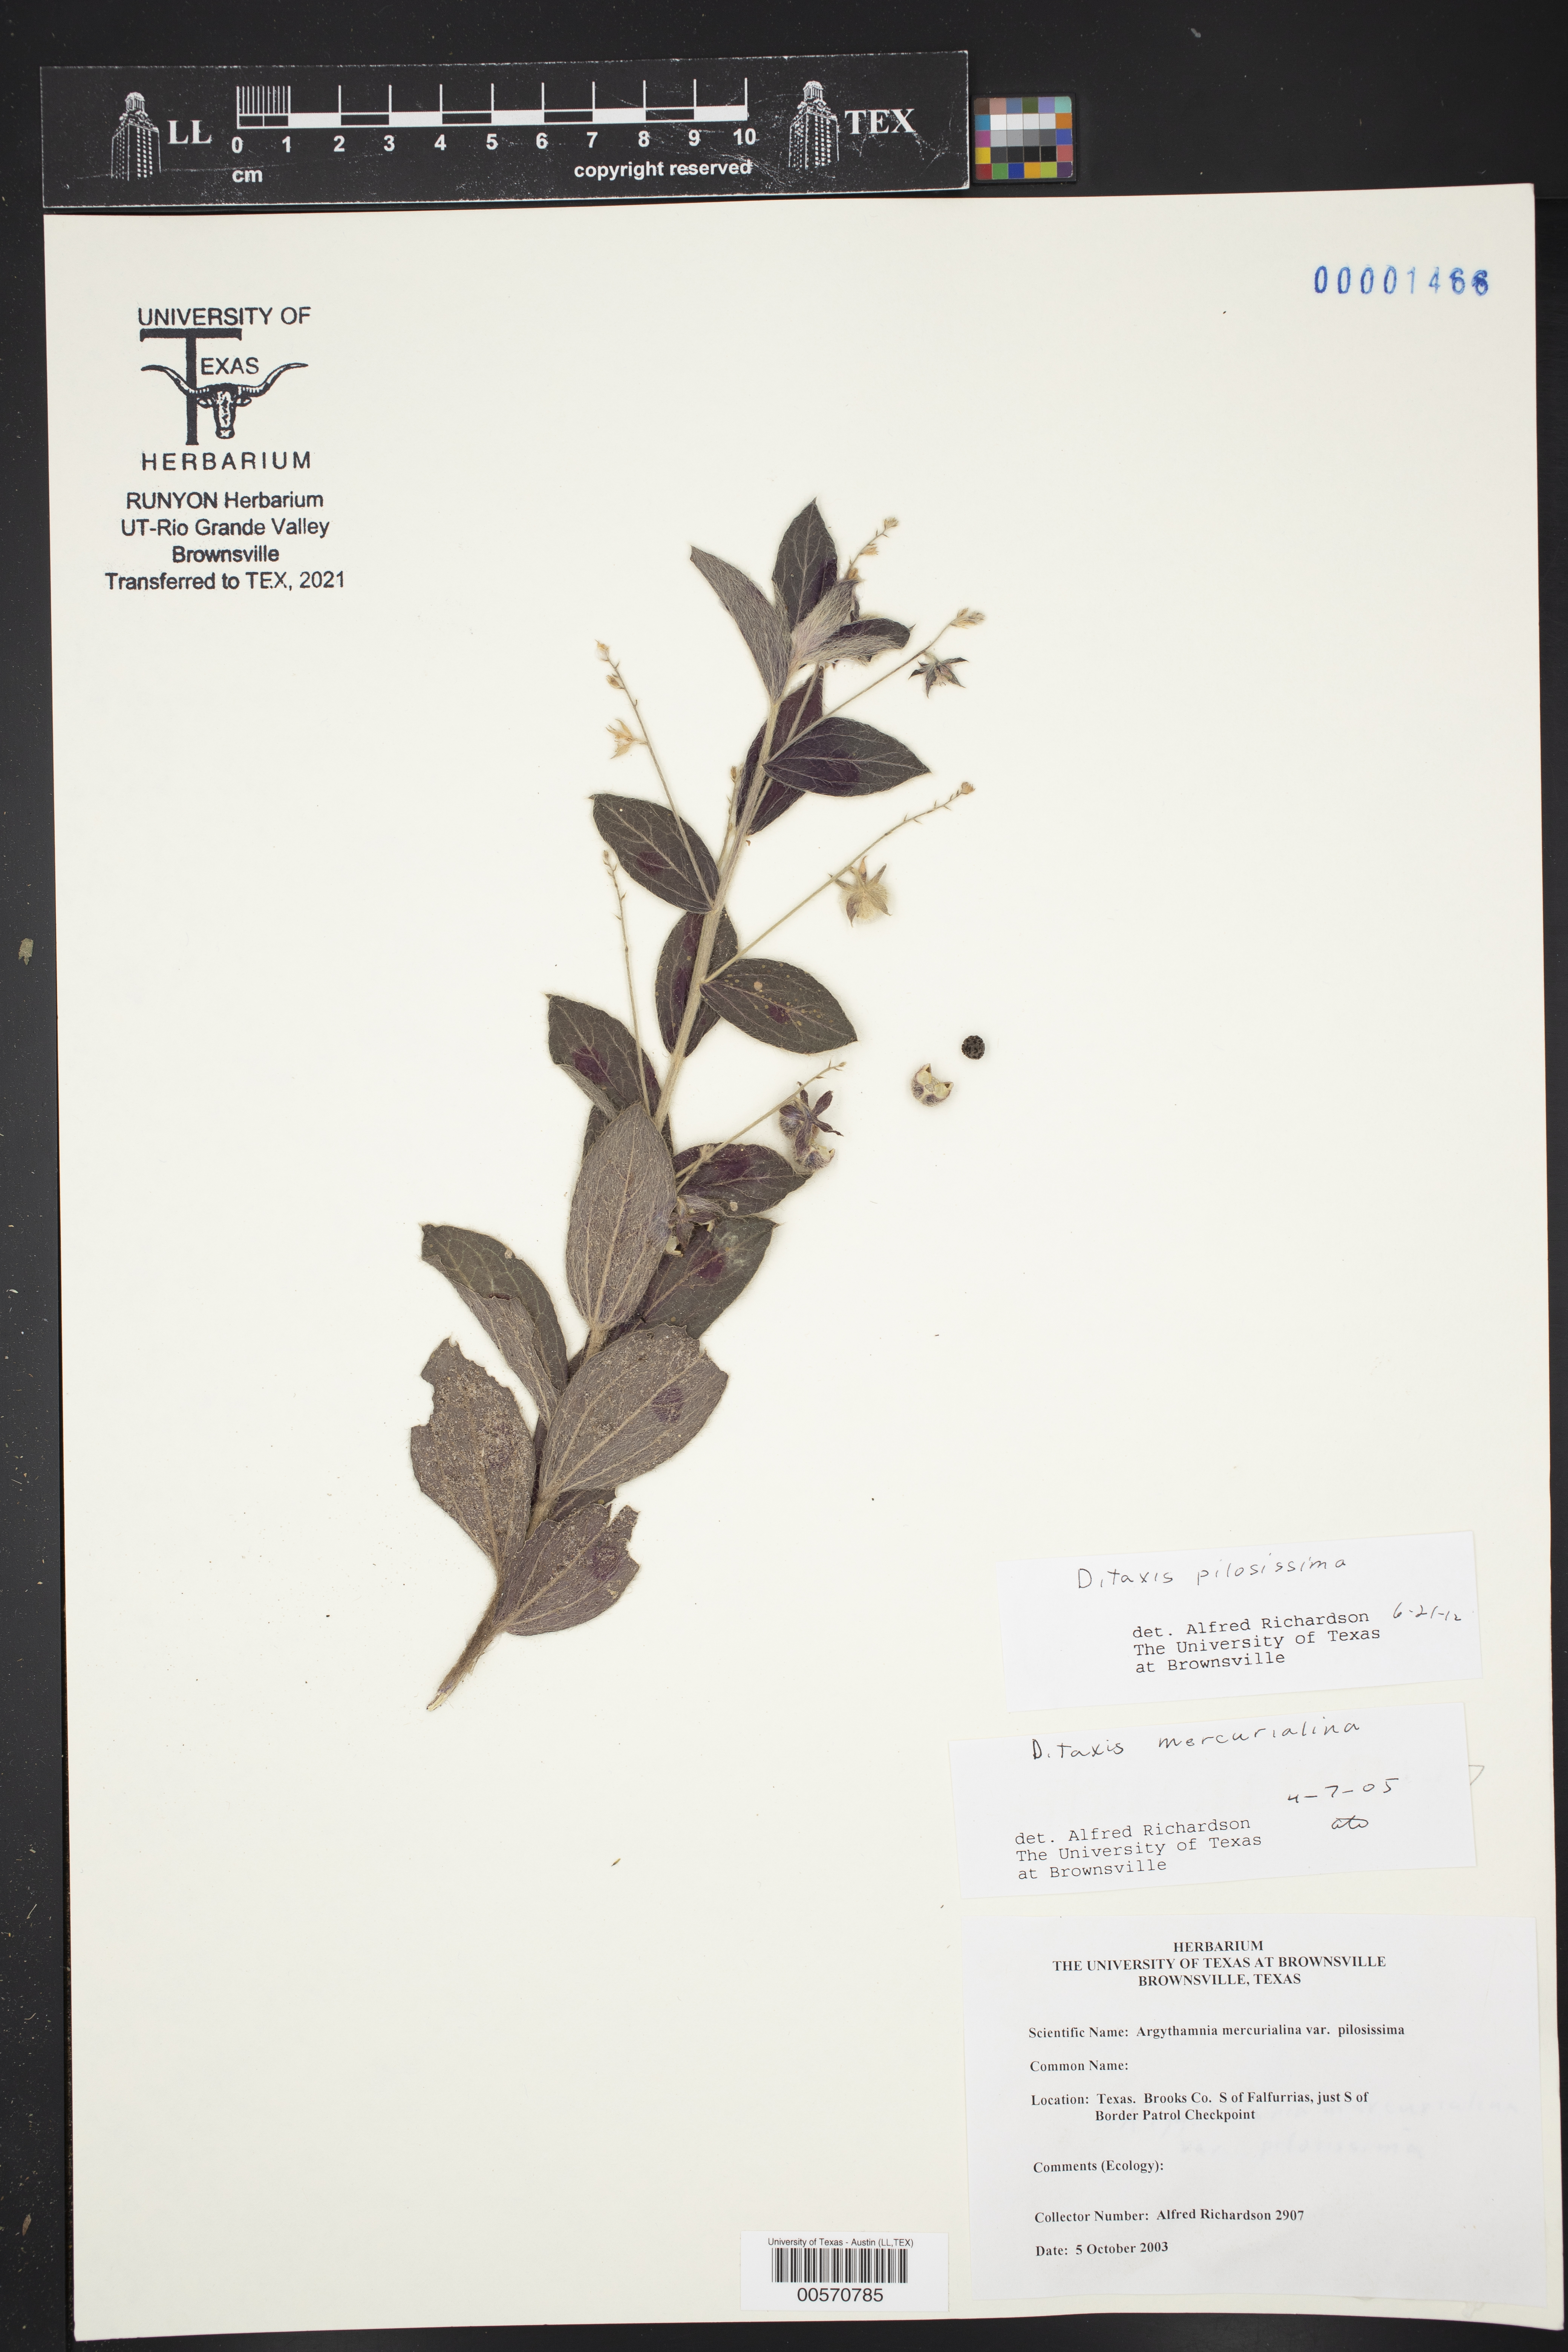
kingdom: Plantae
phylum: Tracheophyta
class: Magnoliopsida
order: Malpighiales
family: Euphorbiaceae
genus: Ditaxis
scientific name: Ditaxis pilosissima
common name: Tall silverbush
